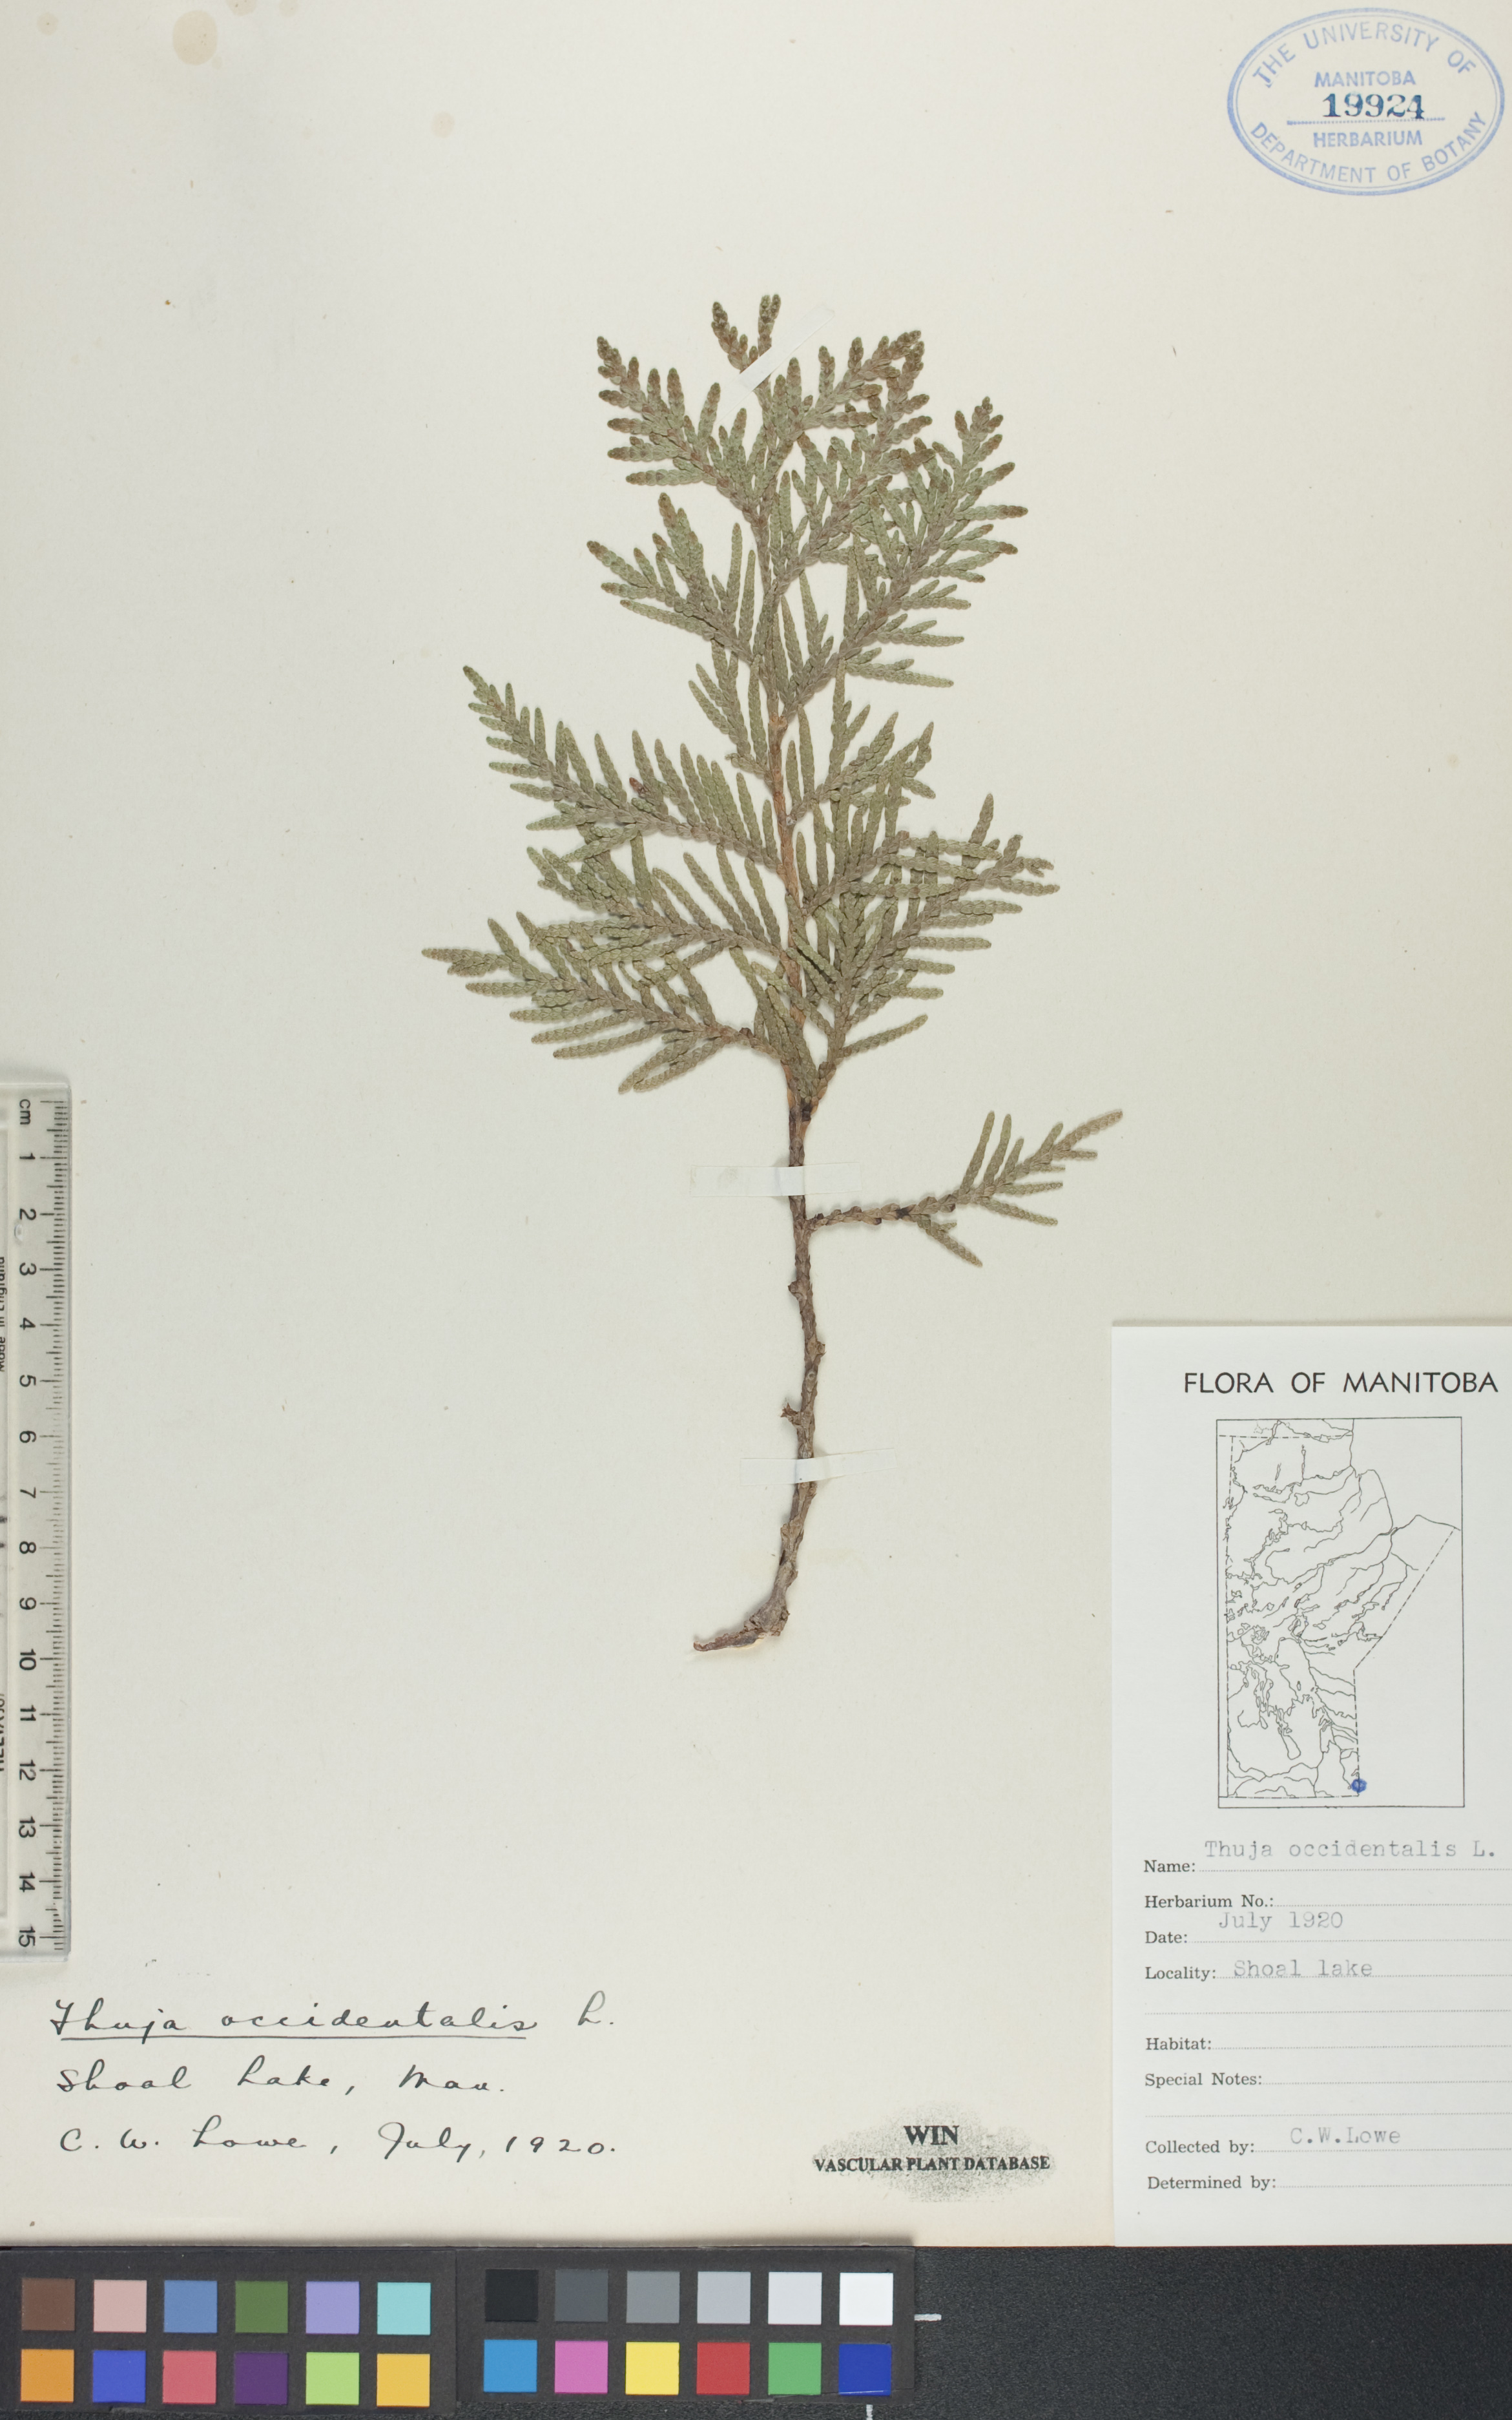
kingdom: Plantae
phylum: Tracheophyta
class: Pinopsida
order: Pinales
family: Cupressaceae
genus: Thuja
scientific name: Thuja occidentalis
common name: Northern white-cedar
